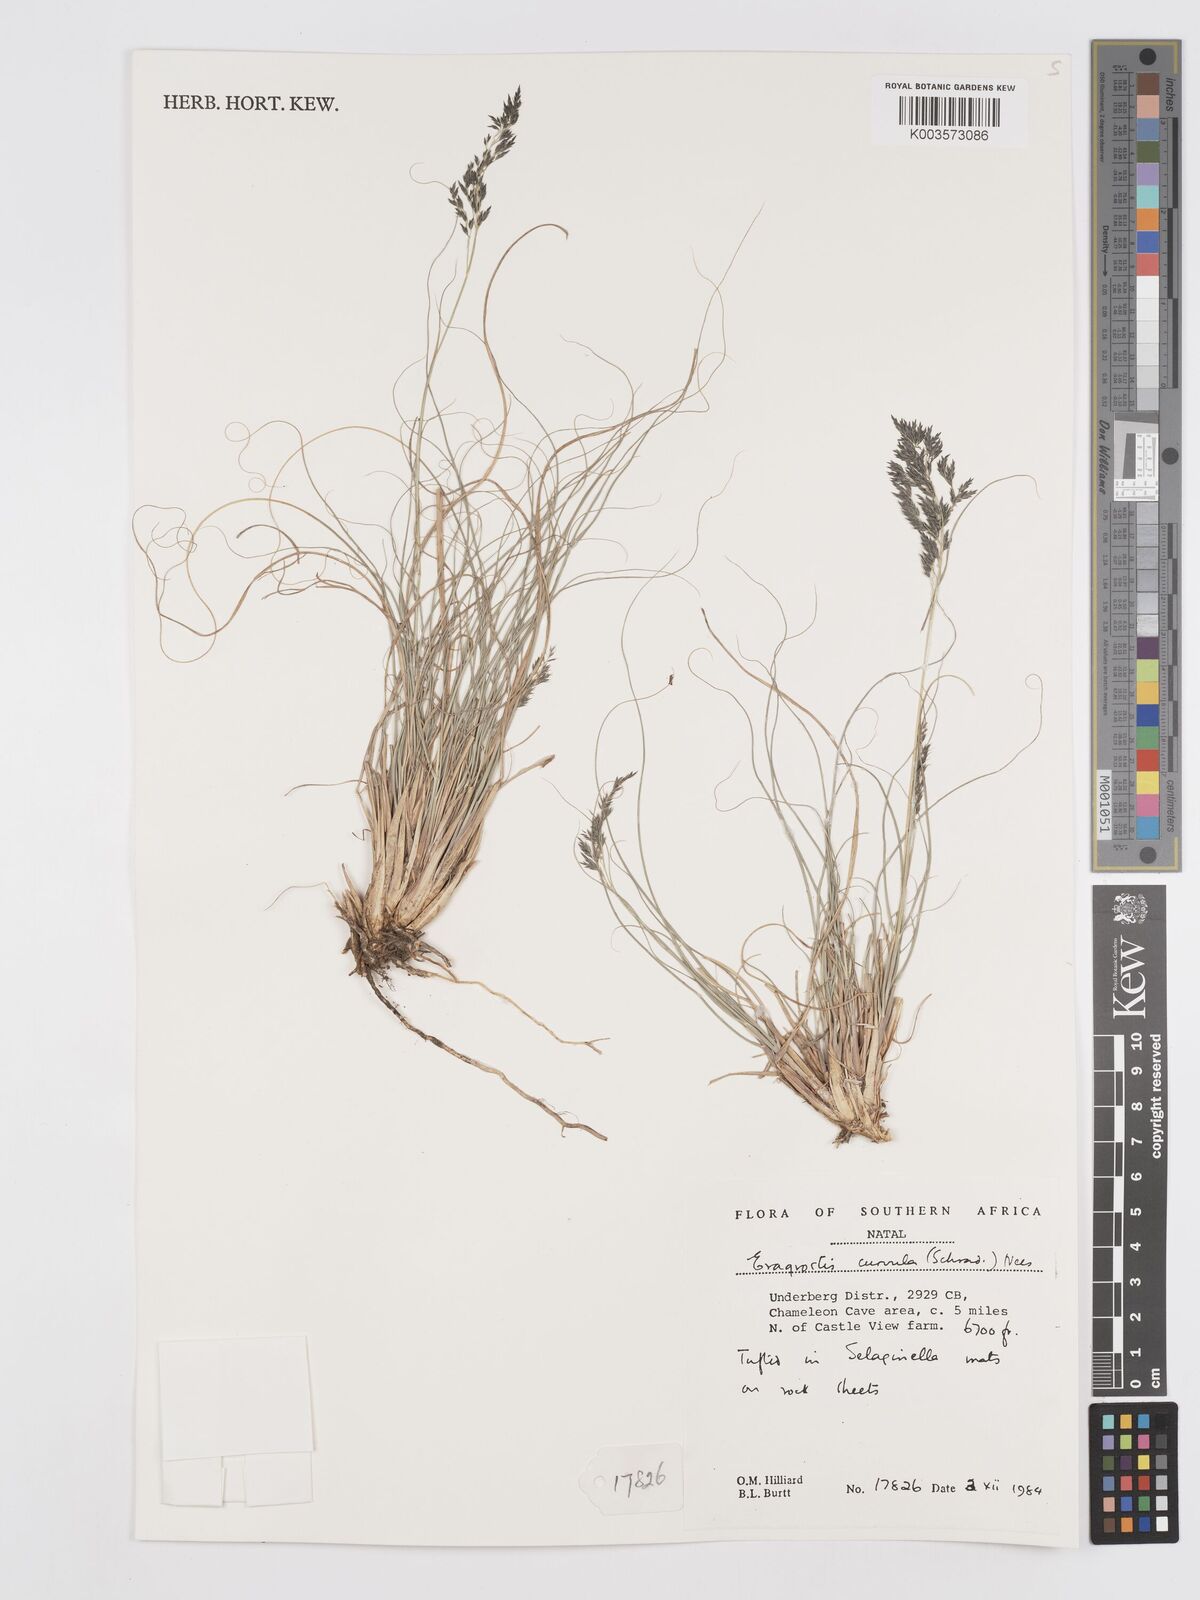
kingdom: Plantae
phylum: Tracheophyta
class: Liliopsida
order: Poales
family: Poaceae
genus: Eragrostis
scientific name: Eragrostis curvula
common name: African love-grass
